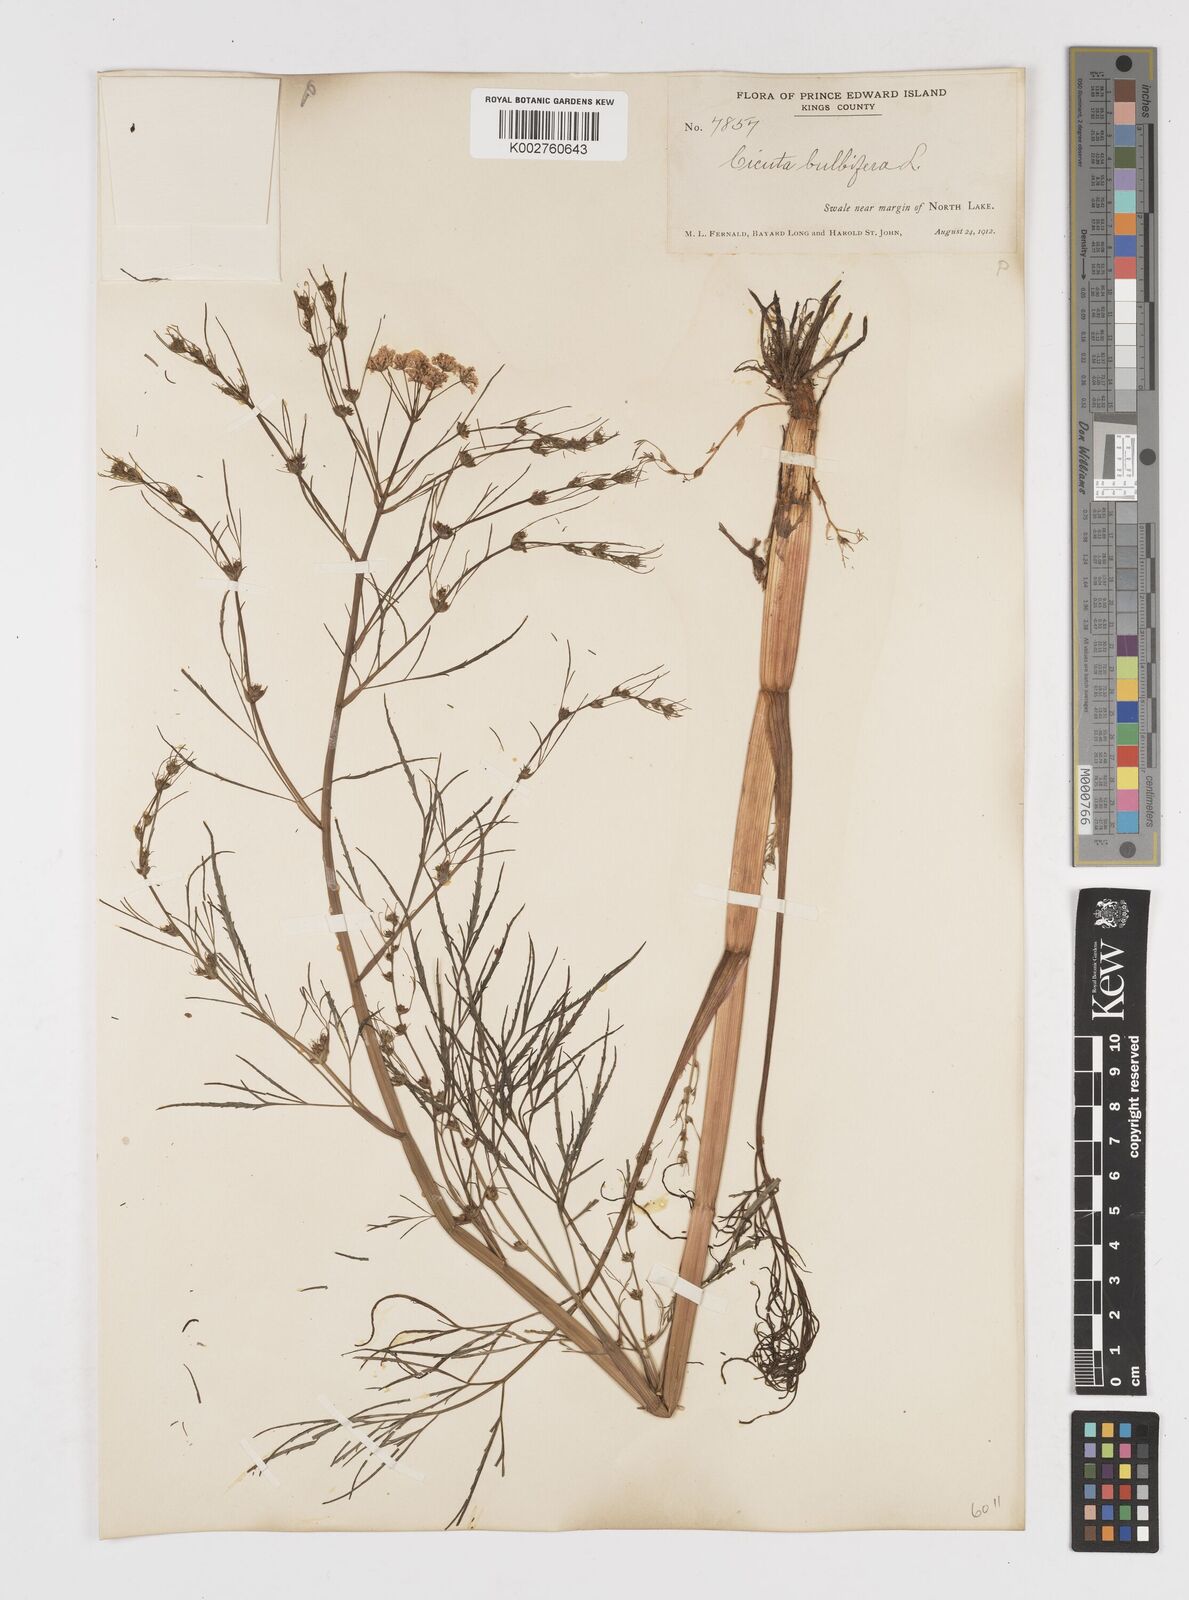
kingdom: Plantae
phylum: Tracheophyta
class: Magnoliopsida
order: Apiales
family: Apiaceae
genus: Cicuta
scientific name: Cicuta bulbifera
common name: Bulb-bearing water-hemlock
